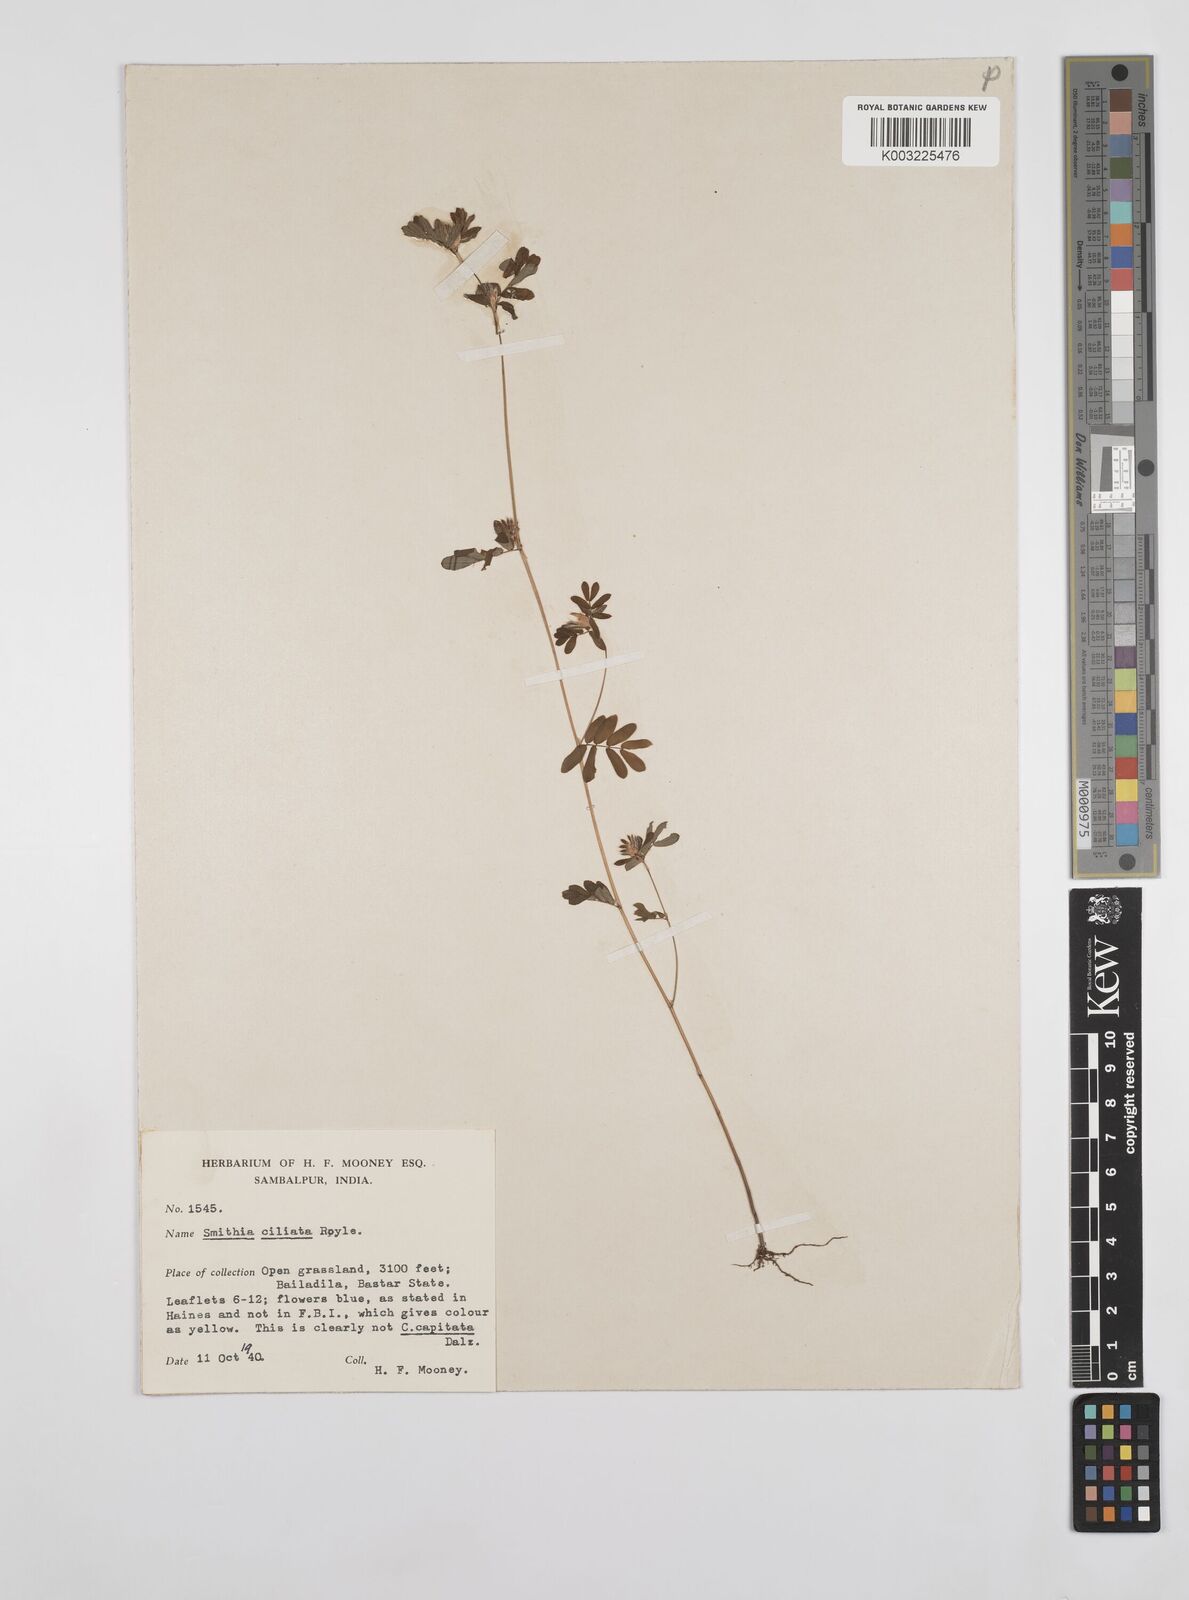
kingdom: Plantae
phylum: Tracheophyta
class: Magnoliopsida
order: Fabales
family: Fabaceae
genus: Smithia
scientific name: Smithia ciliata
